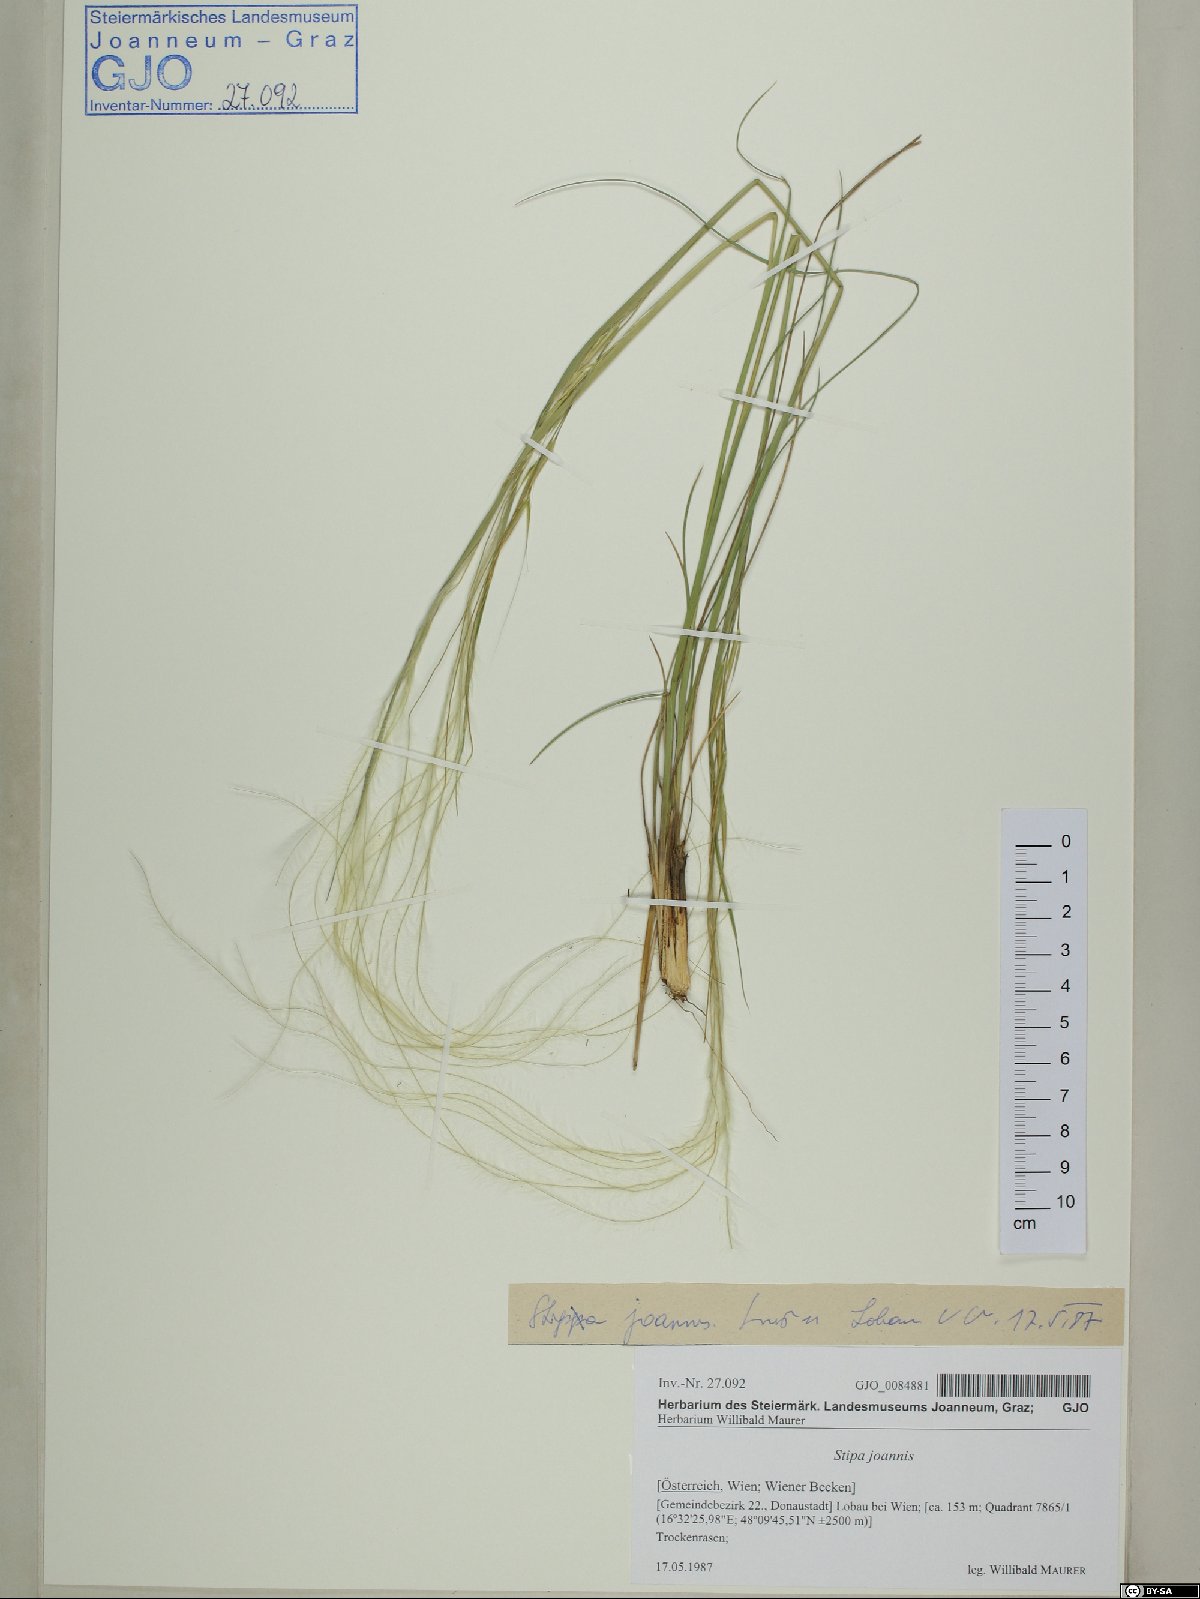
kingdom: Plantae
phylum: Tracheophyta
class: Liliopsida
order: Poales
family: Poaceae
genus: Stipa
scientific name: Stipa pennata
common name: European feather grass
